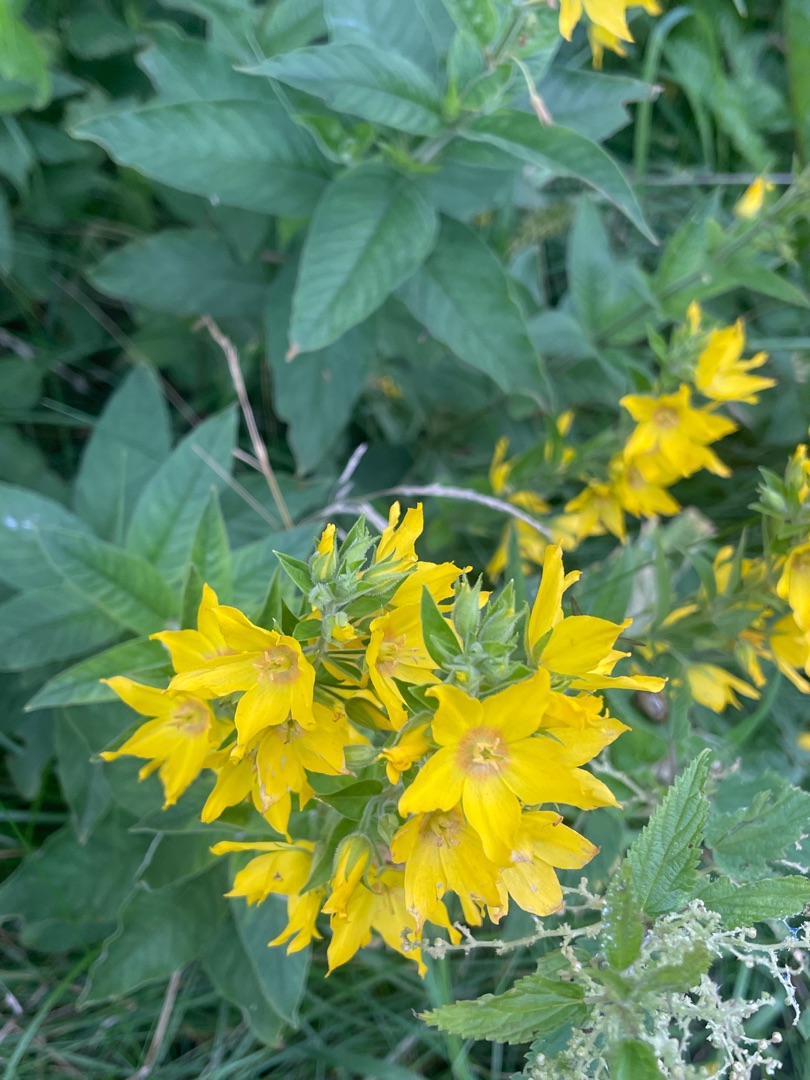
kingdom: Plantae
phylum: Tracheophyta
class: Magnoliopsida
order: Ericales
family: Primulaceae
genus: Lysimachia
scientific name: Lysimachia punctata
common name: Prikbladet fredløs
